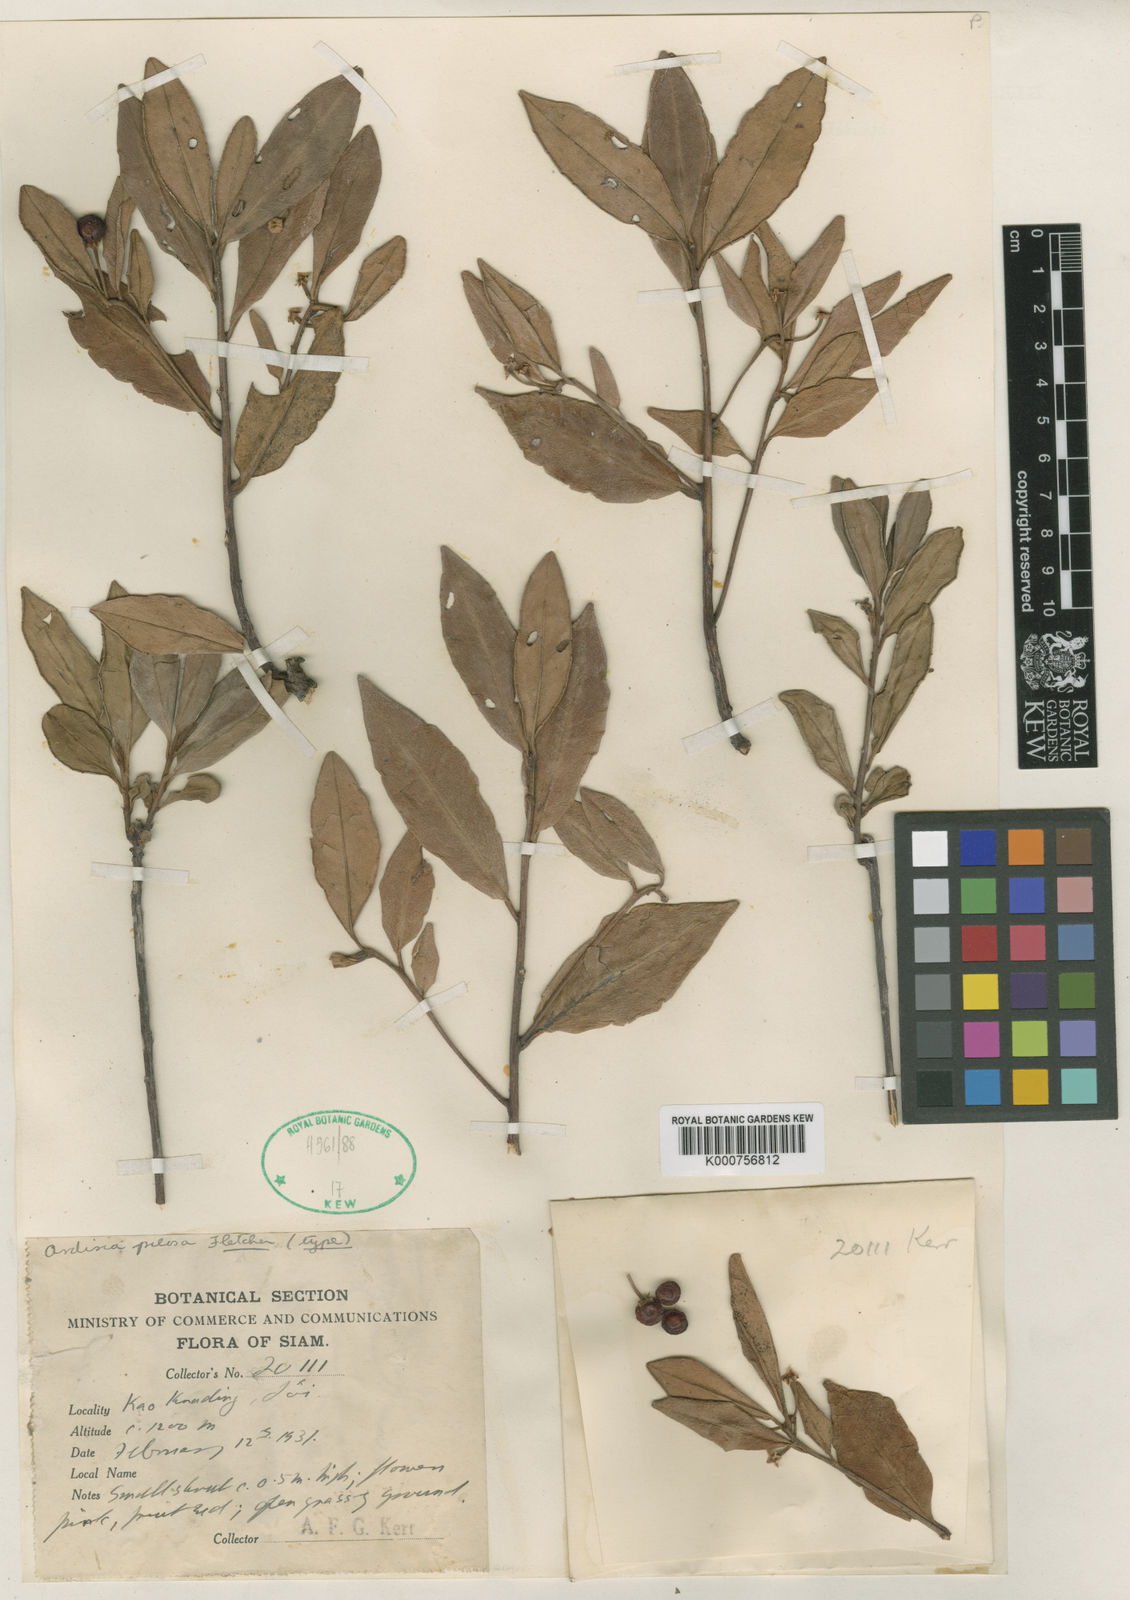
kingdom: Plantae
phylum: Tracheophyta
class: Magnoliopsida
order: Ericales
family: Primulaceae
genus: Ardisia
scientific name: Ardisia pilosa
